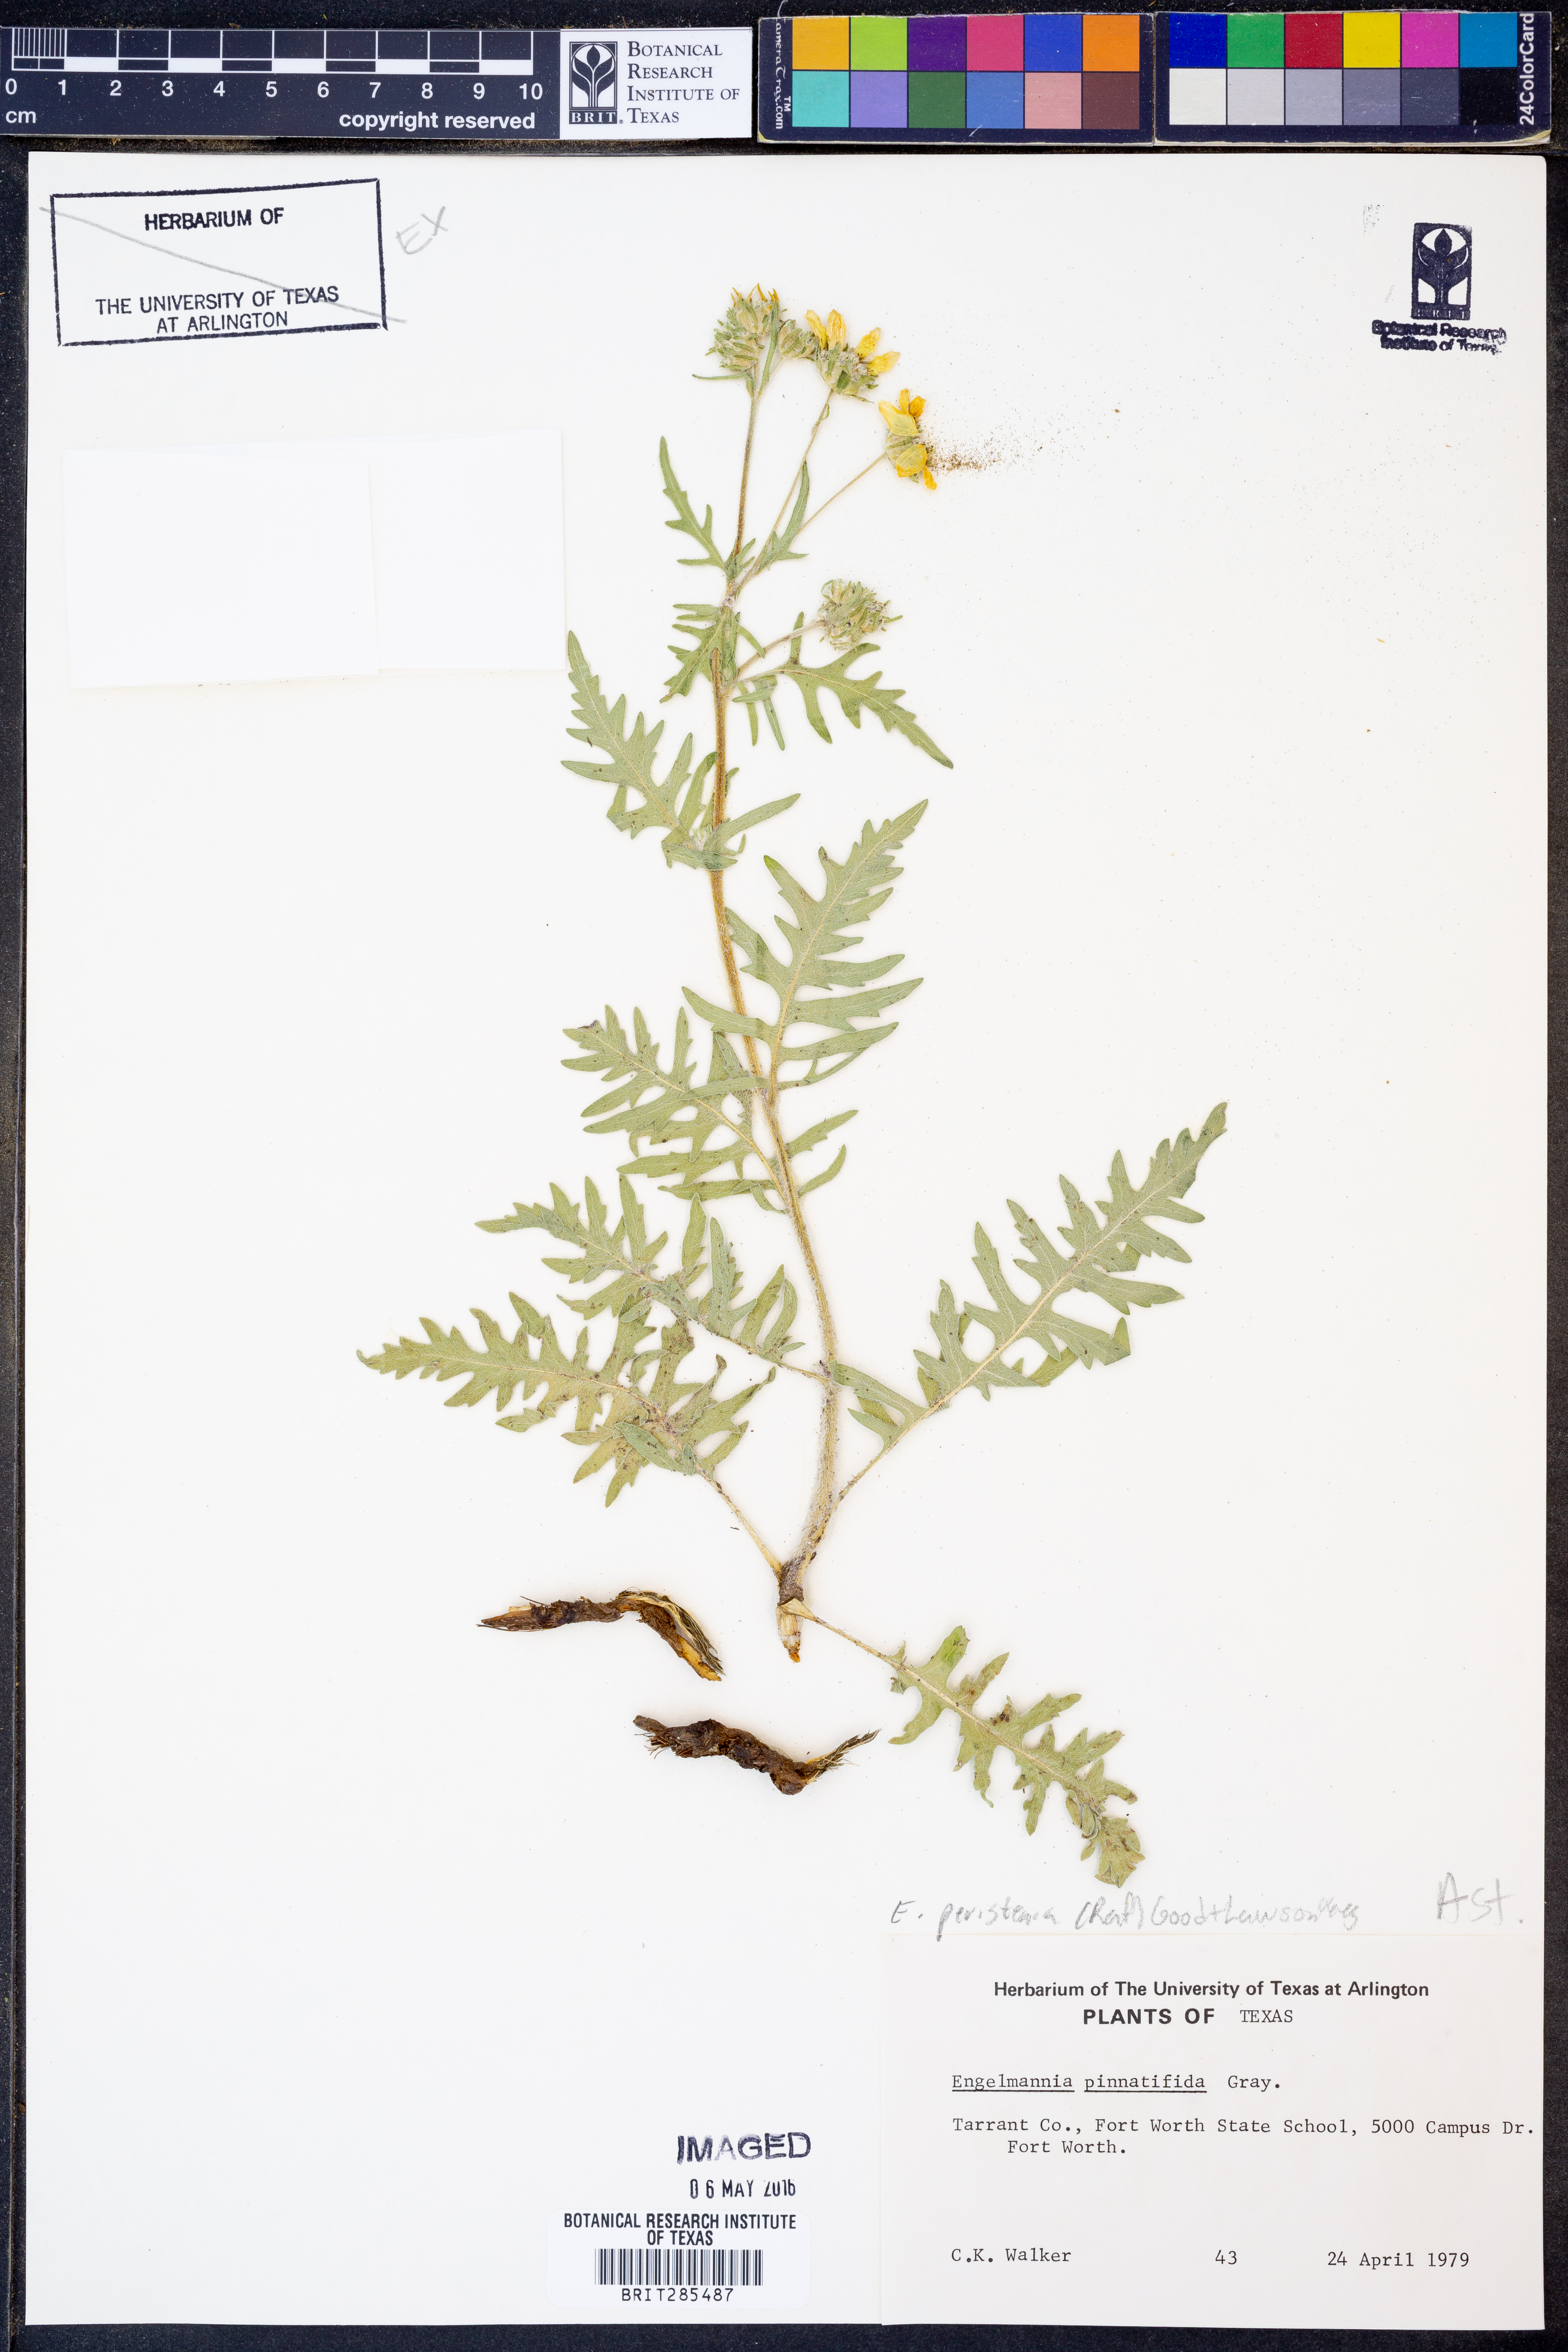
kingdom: Plantae
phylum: Tracheophyta
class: Magnoliopsida
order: Asterales
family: Asteraceae
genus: Engelmannia
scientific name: Engelmannia peristenia
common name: Engelmann's daisy
